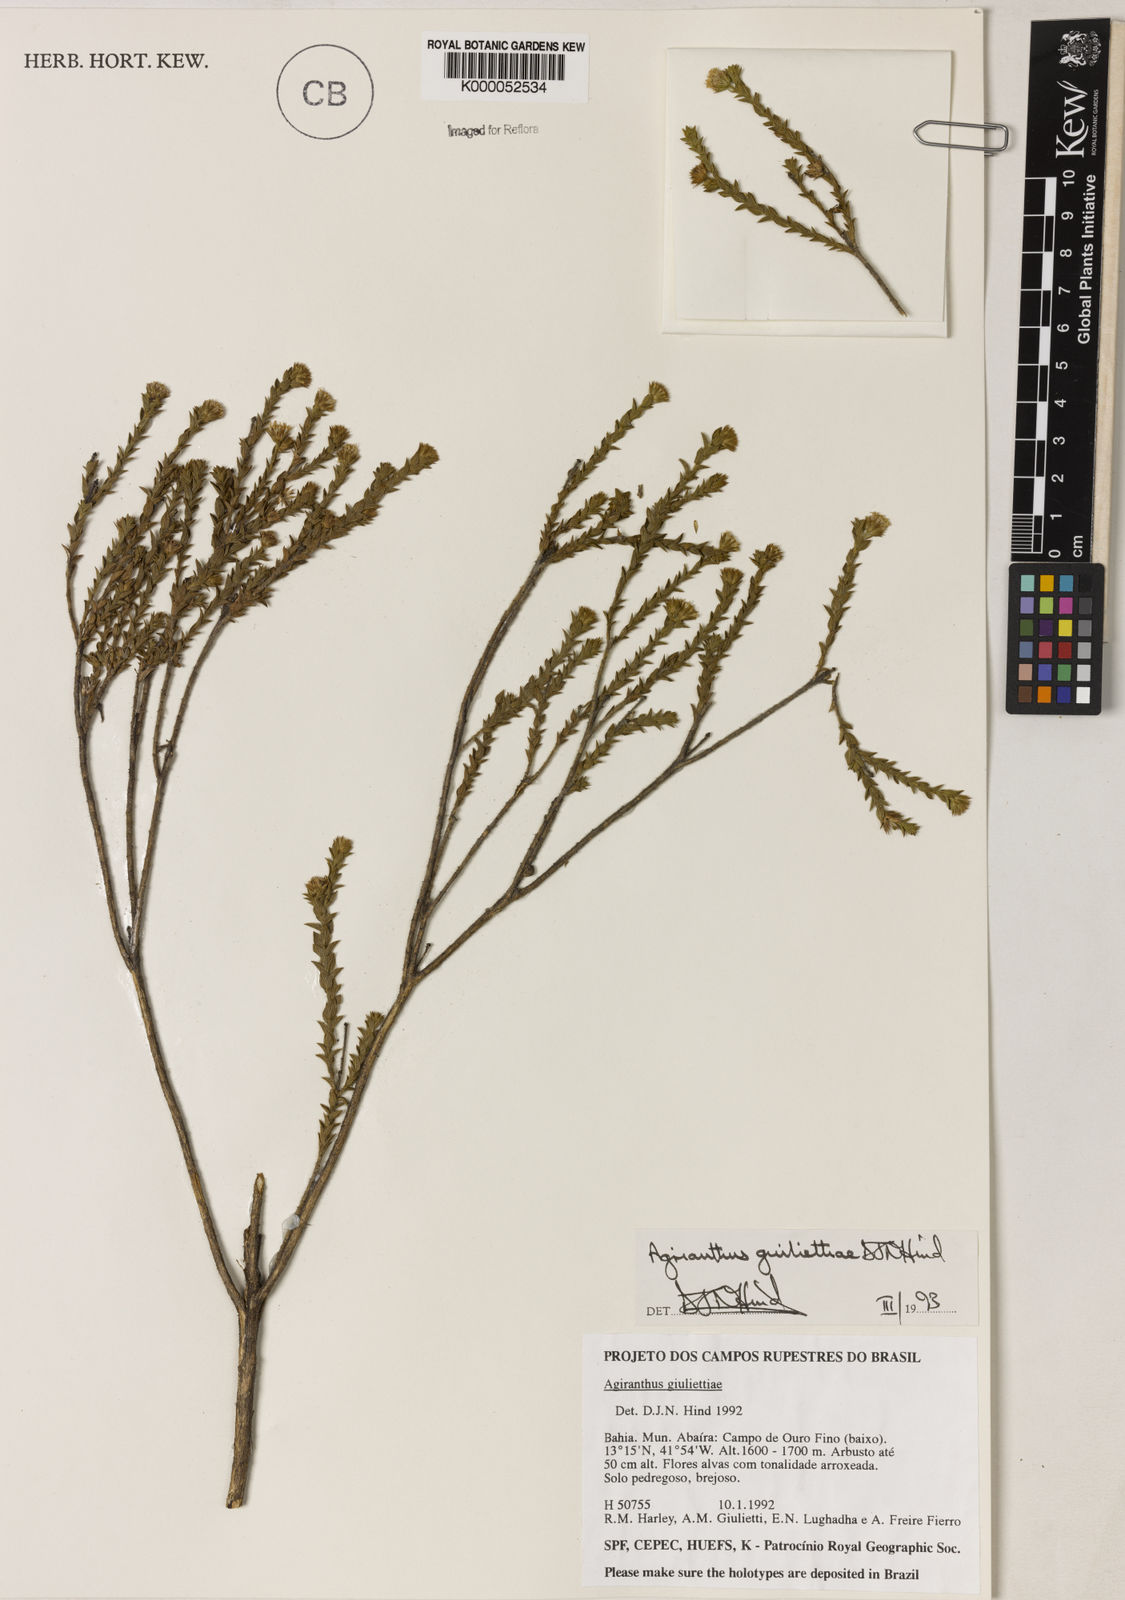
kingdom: Plantae
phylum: Tracheophyta
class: Magnoliopsida
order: Asterales
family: Asteraceae
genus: Agrianthus
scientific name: Agrianthus giuliettiae
